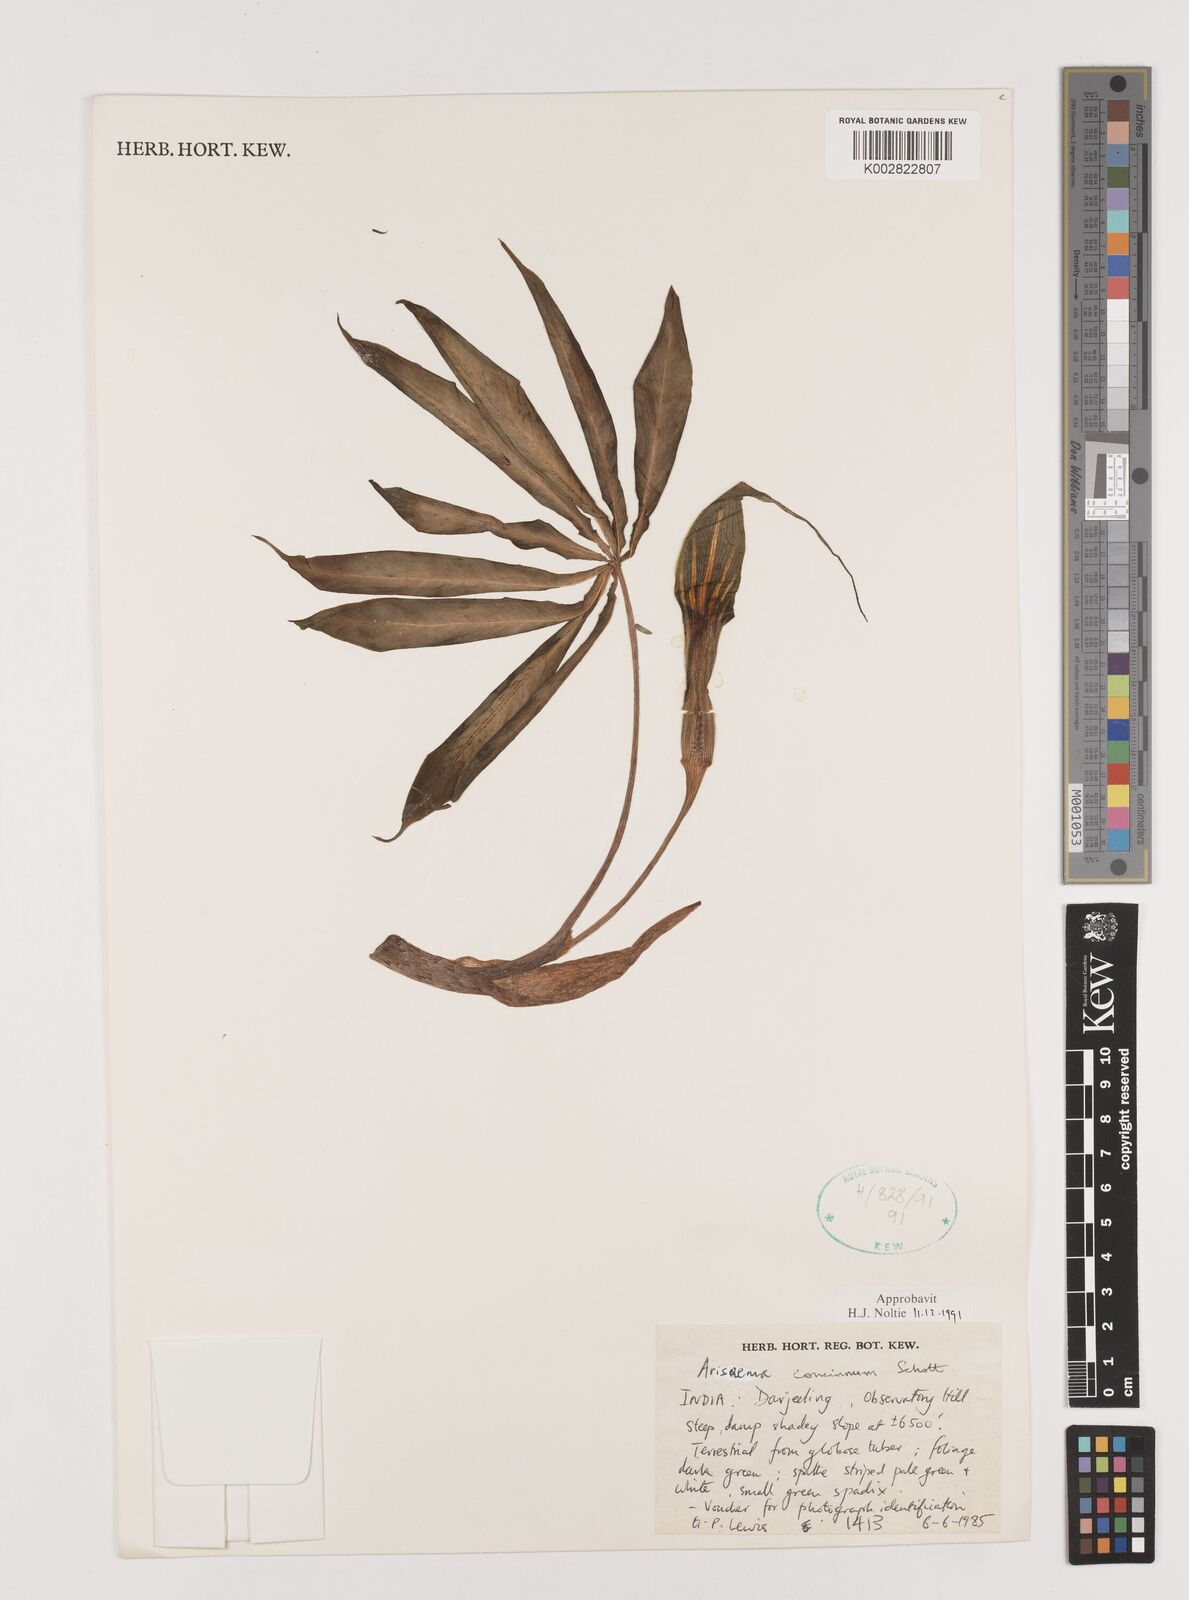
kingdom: Plantae
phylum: Tracheophyta
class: Liliopsida
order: Alismatales
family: Araceae
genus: Arisaema
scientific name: Arisaema concinnum
